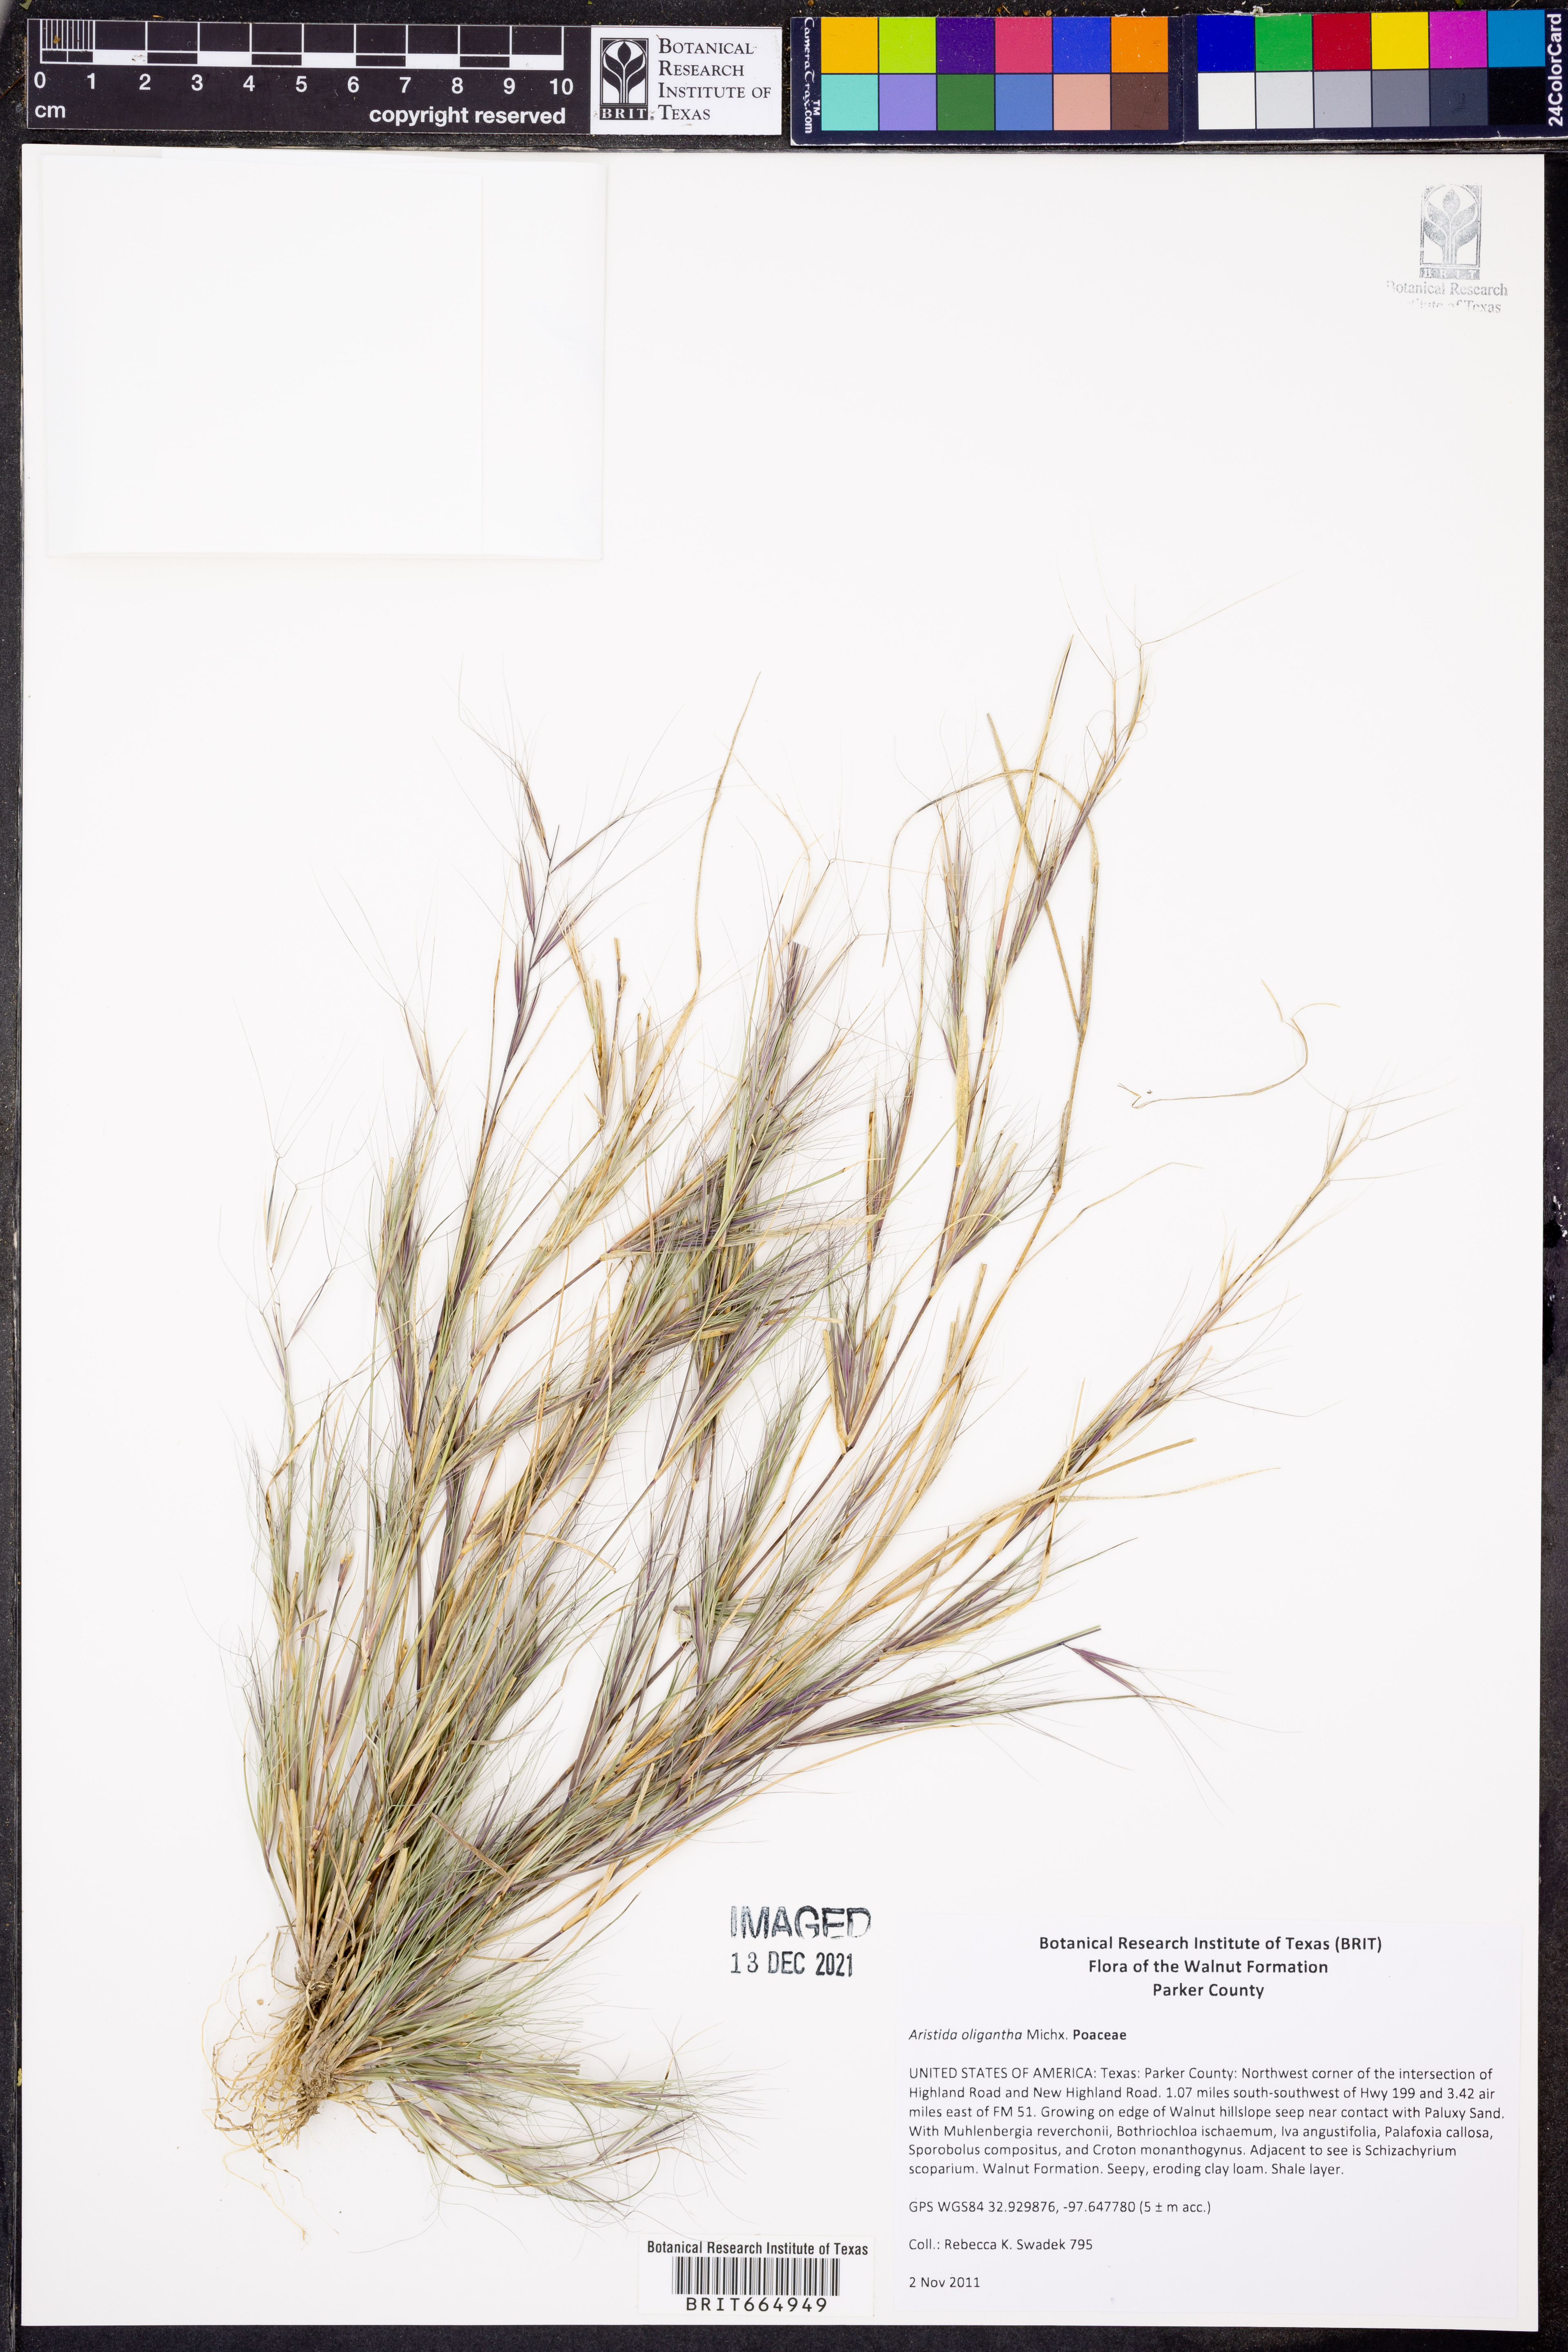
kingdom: Plantae
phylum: Tracheophyta
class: Liliopsida
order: Poales
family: Poaceae
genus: Aristida
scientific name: Aristida oligantha
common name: Few-flowered aristida
